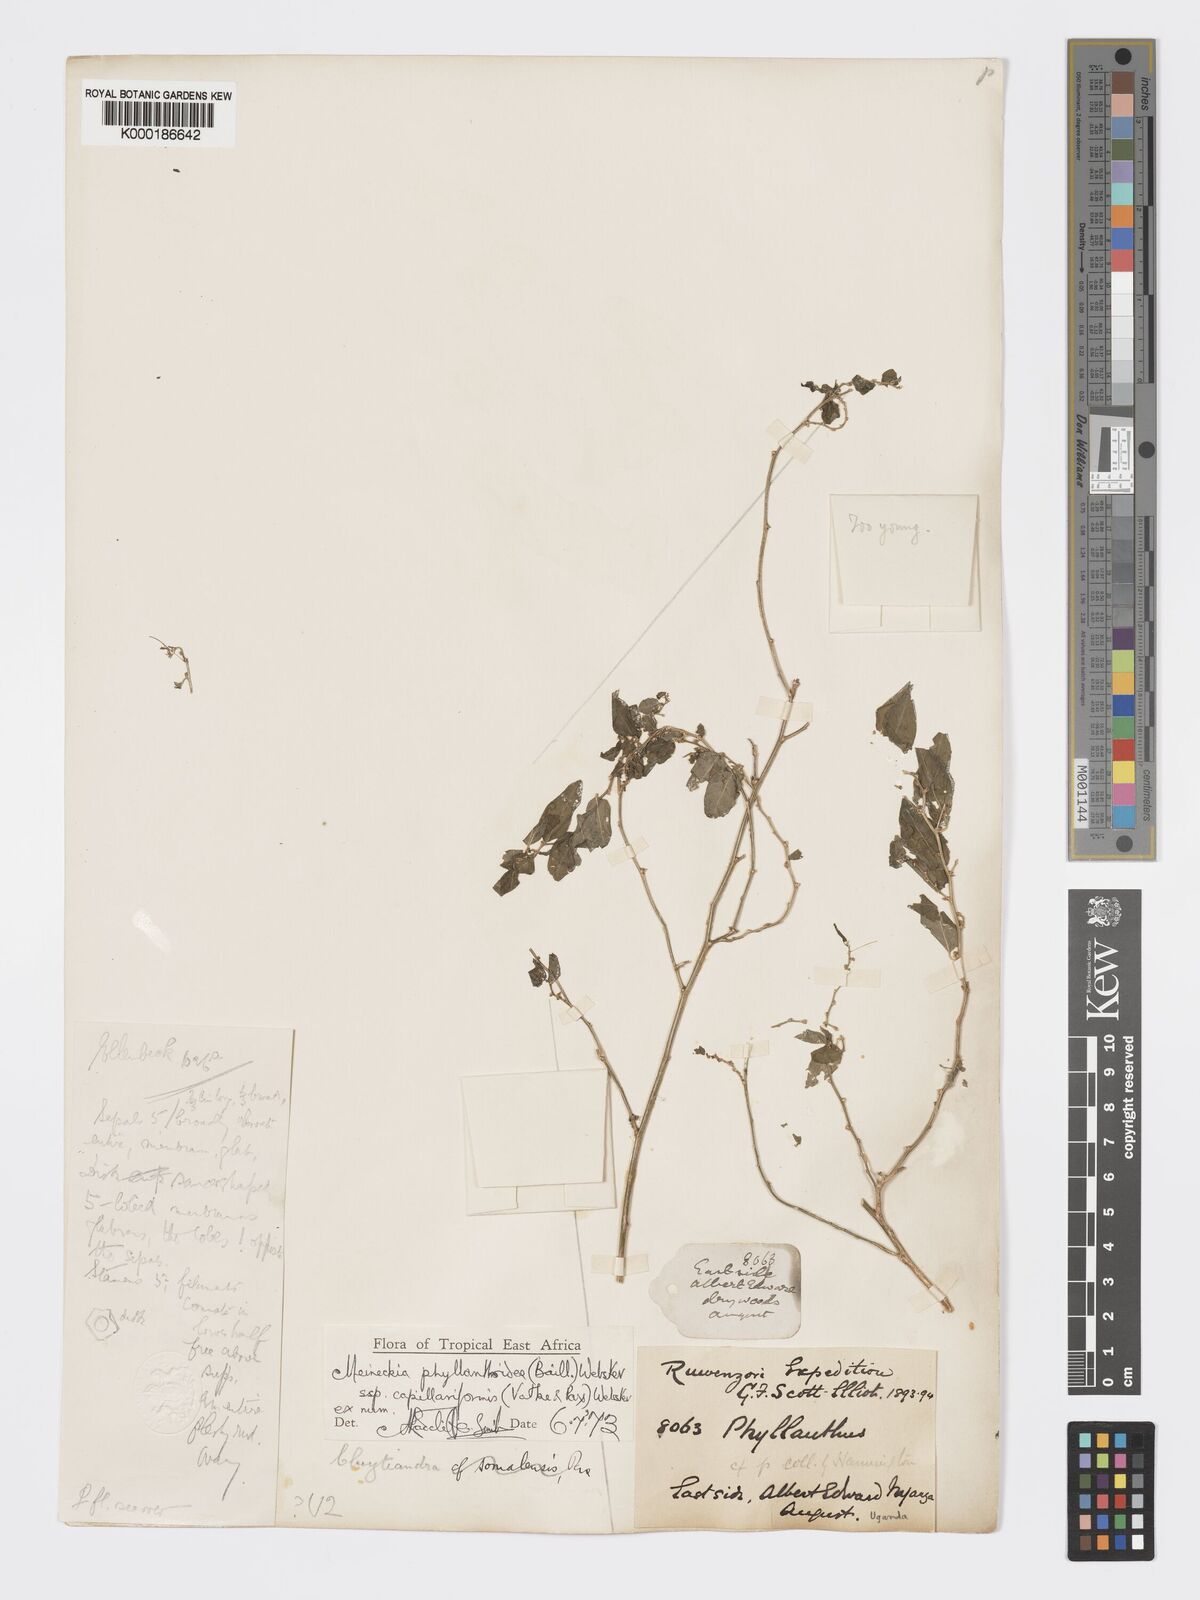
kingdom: Plantae
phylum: Tracheophyta
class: Magnoliopsida
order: Malpighiales
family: Phyllanthaceae
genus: Meineckia
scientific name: Meineckia phyllanthoides
